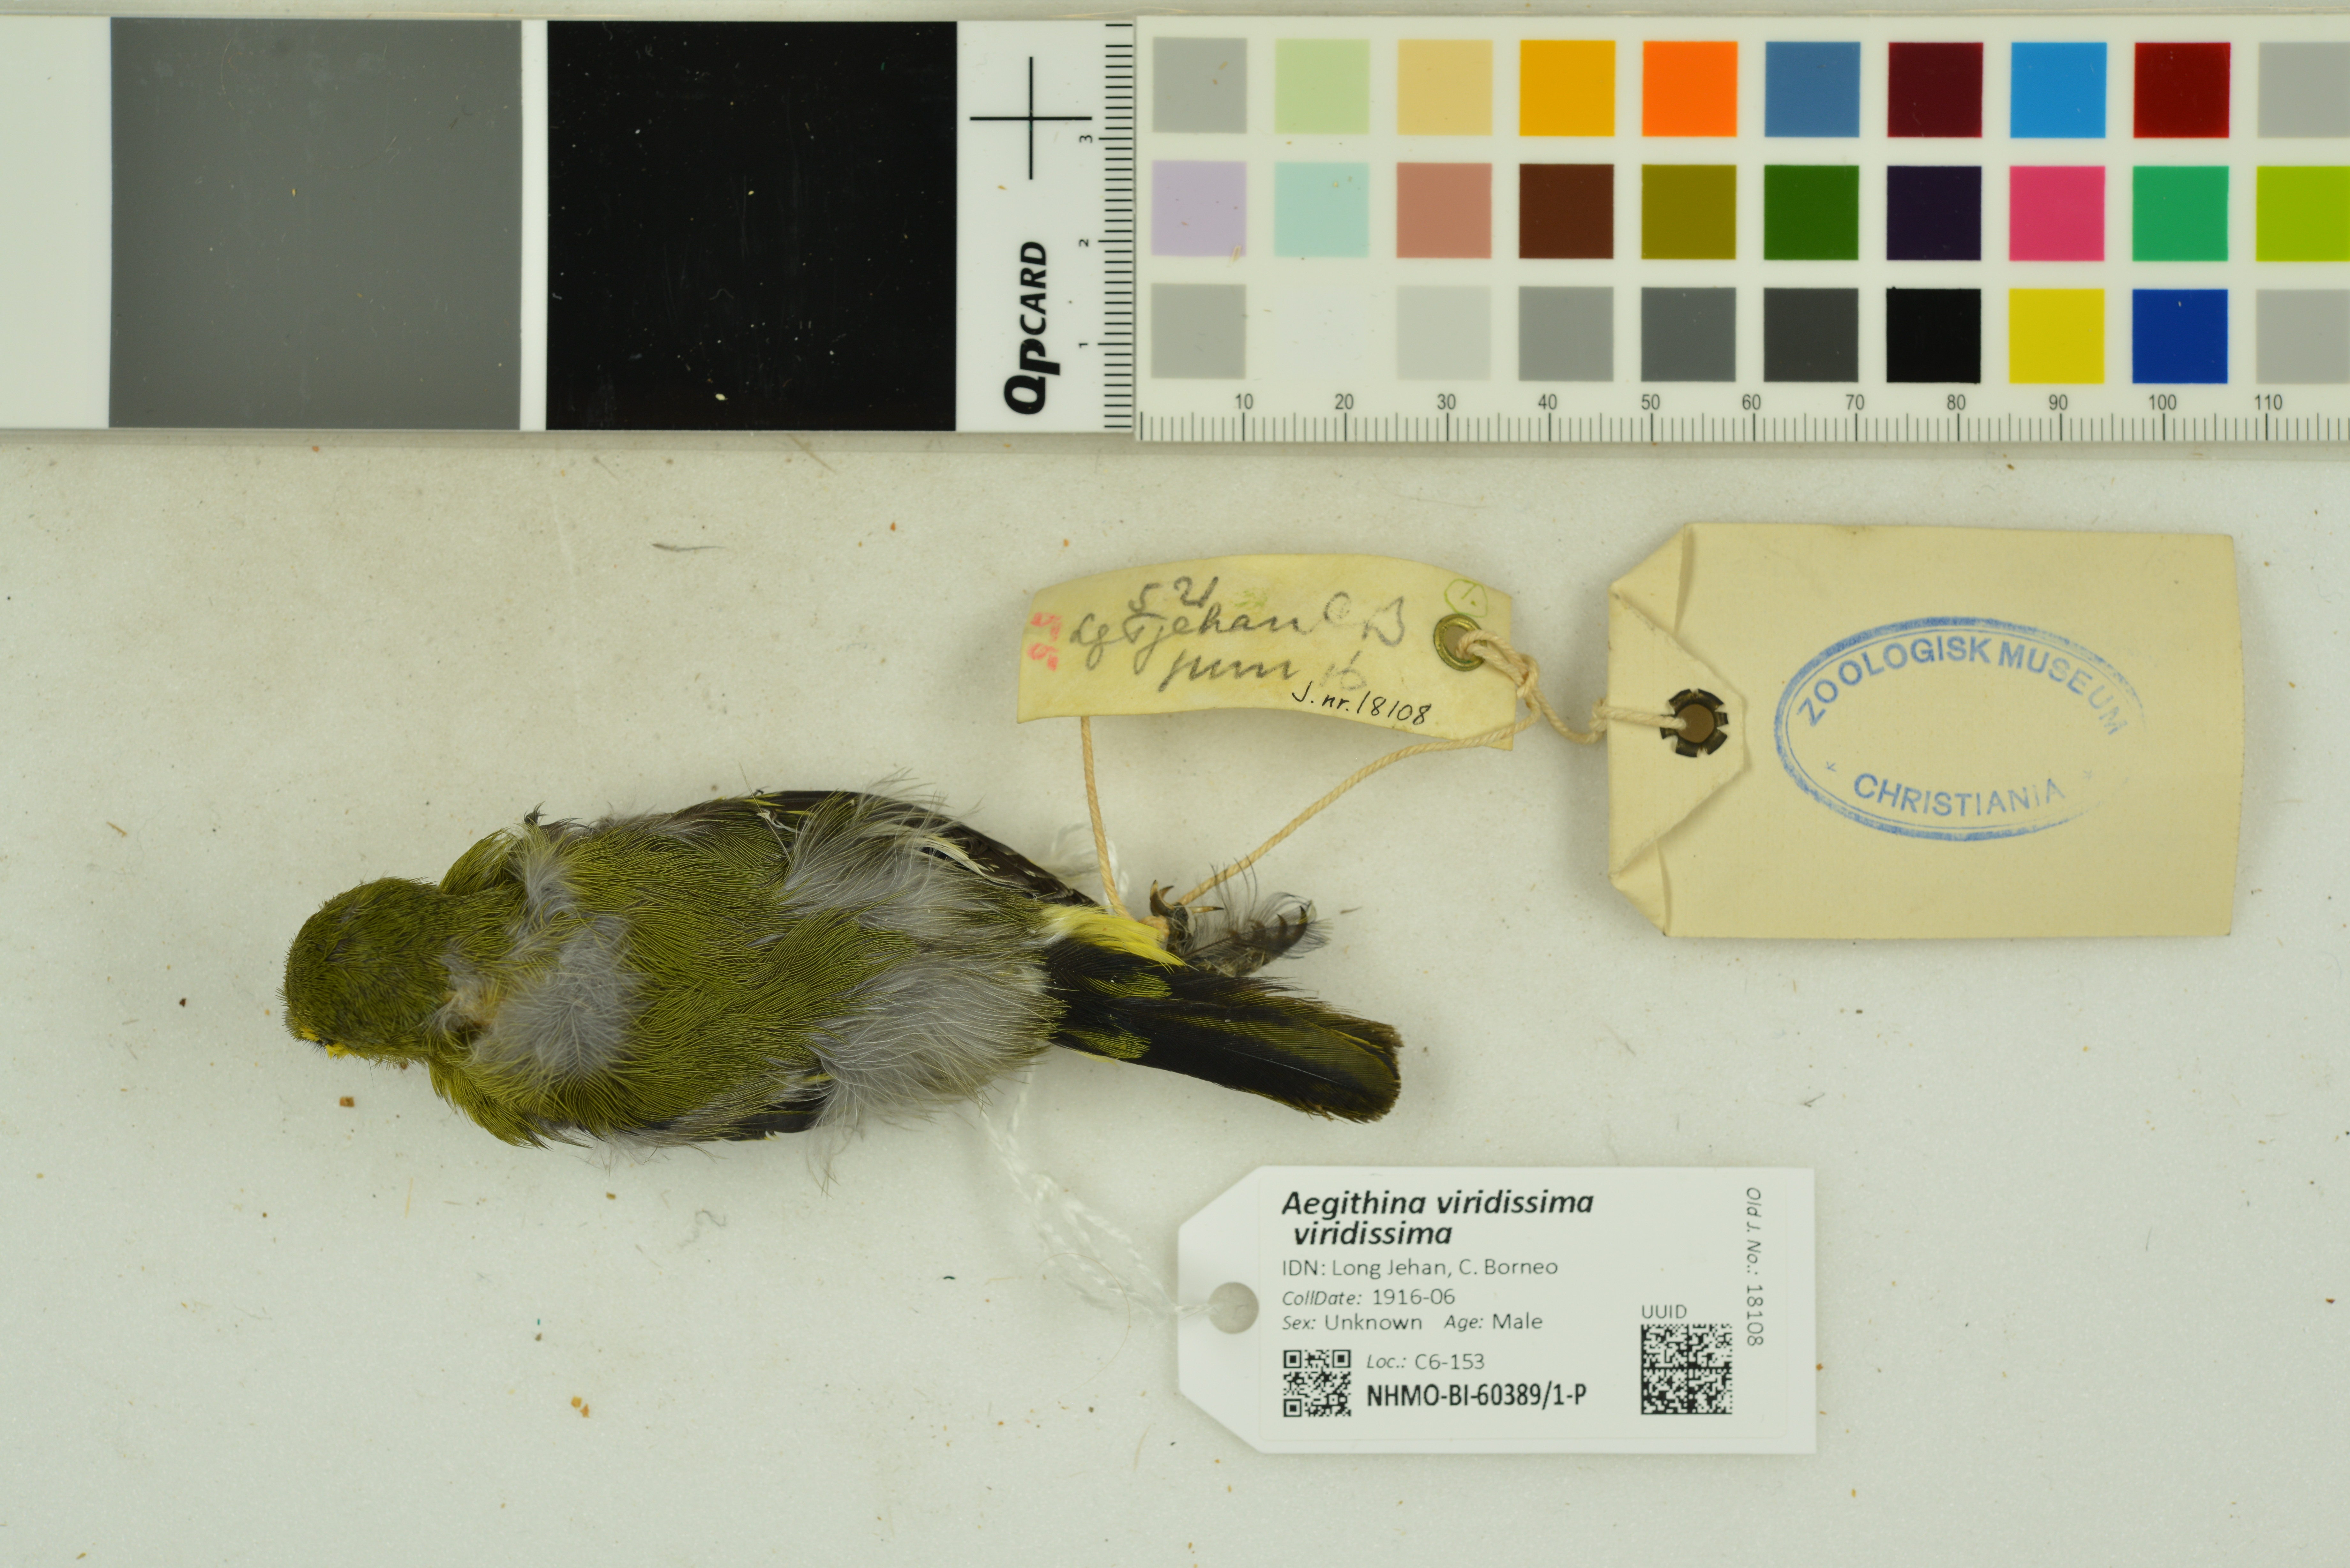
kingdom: Animalia
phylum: Chordata
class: Aves
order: Passeriformes
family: Aegithinidae
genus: Aegithina
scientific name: Aegithina viridissima
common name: Green iora
